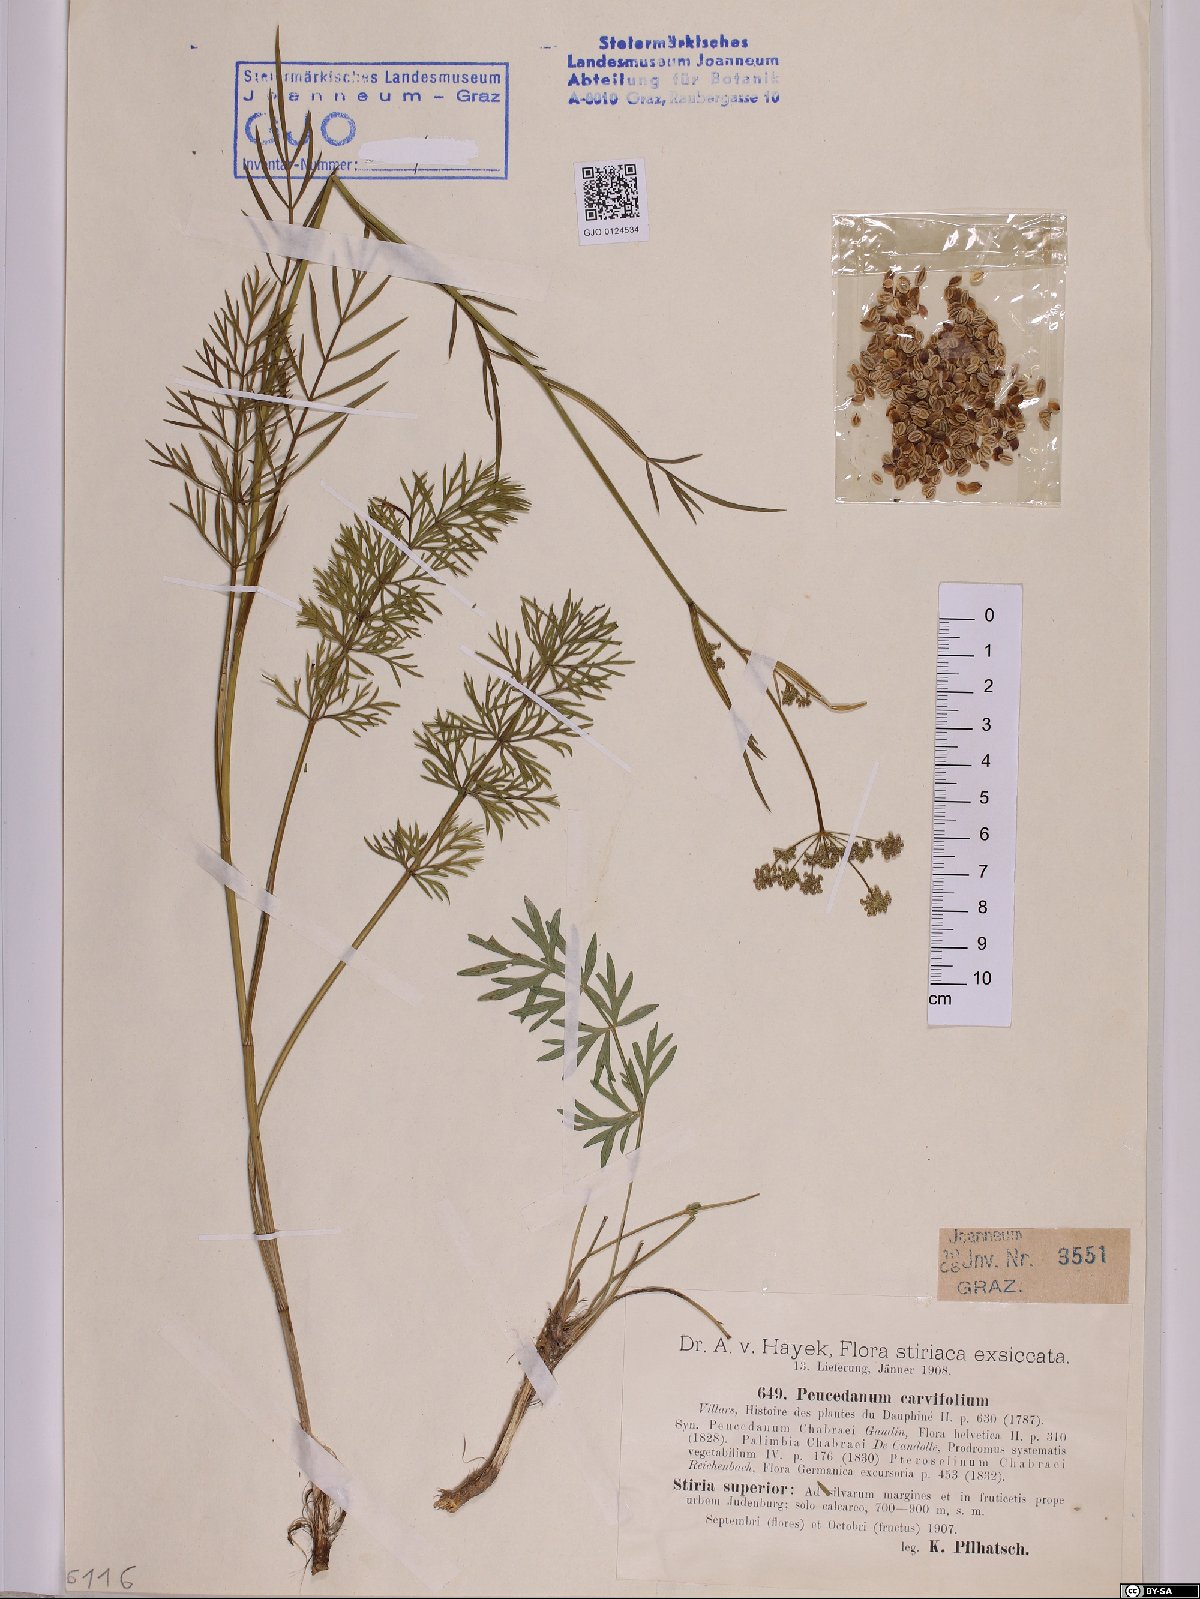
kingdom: Plantae
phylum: Tracheophyta
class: Magnoliopsida
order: Apiales
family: Apiaceae
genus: Dichoropetalum
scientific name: Dichoropetalum carvifolia
